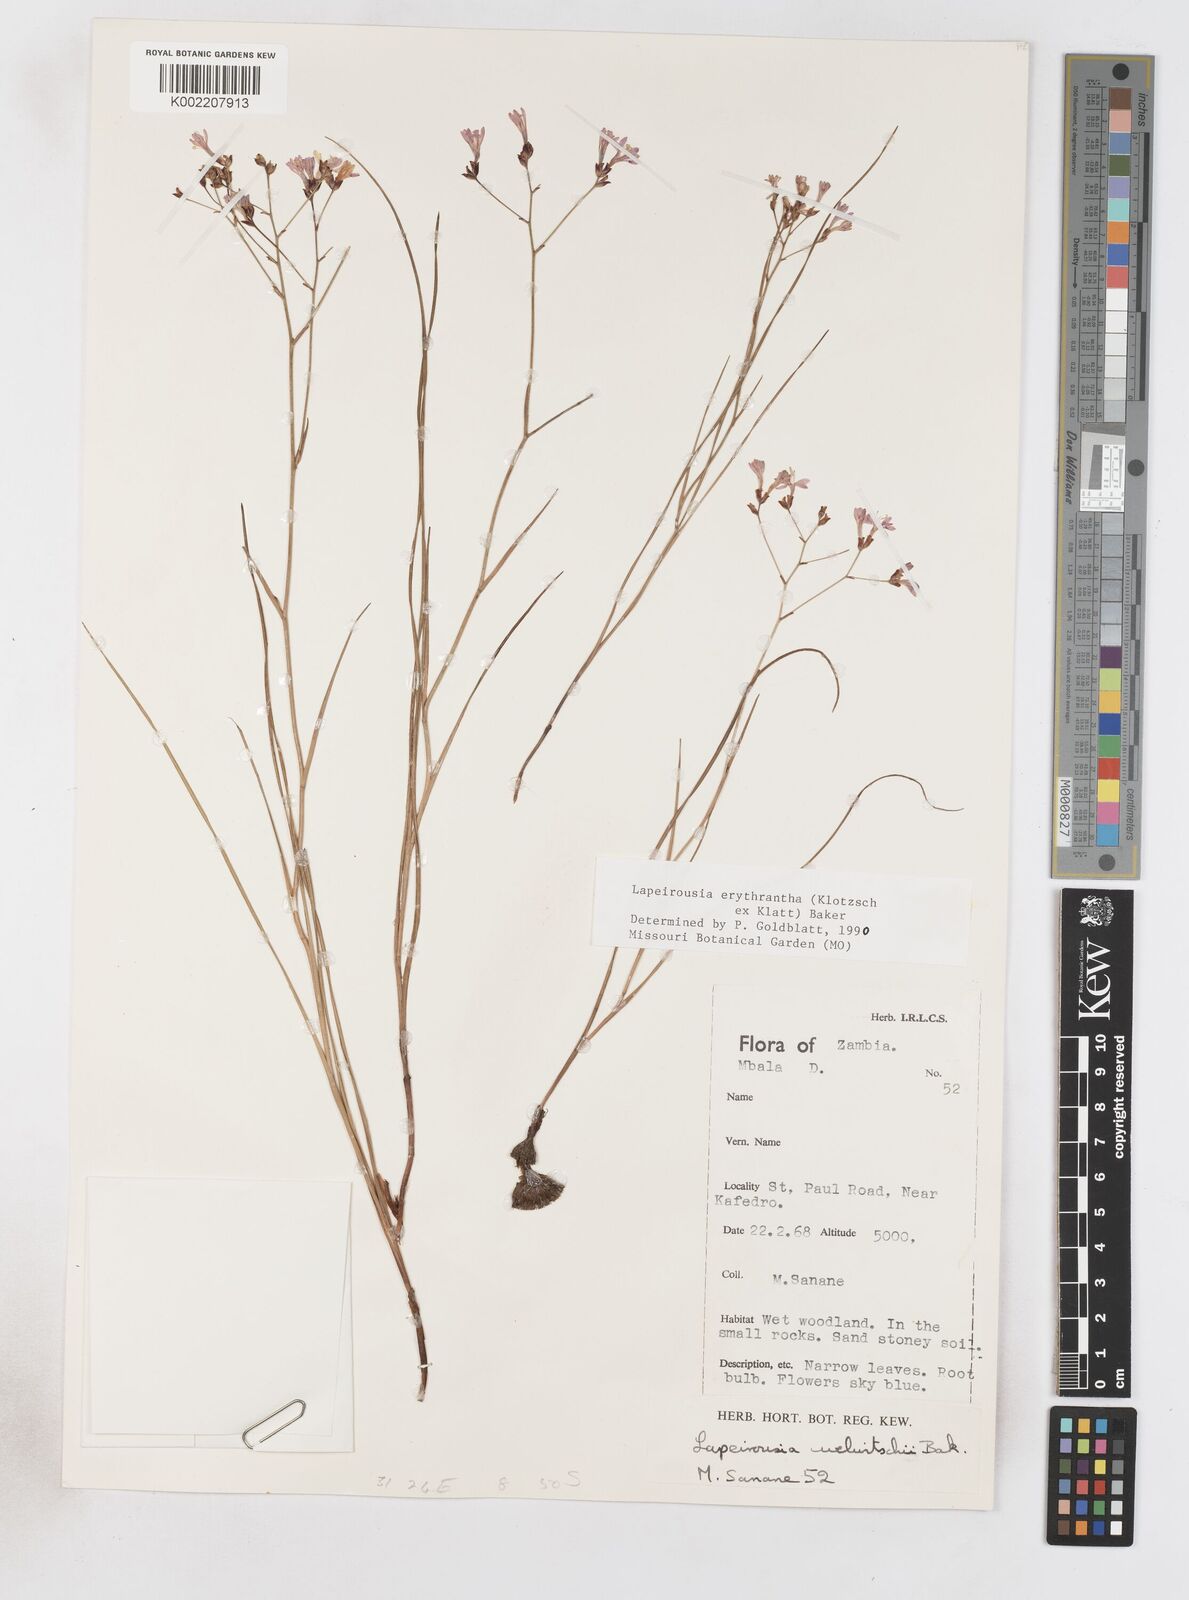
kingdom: Plantae
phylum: Tracheophyta
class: Liliopsida
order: Asparagales
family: Iridaceae
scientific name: Iridaceae
